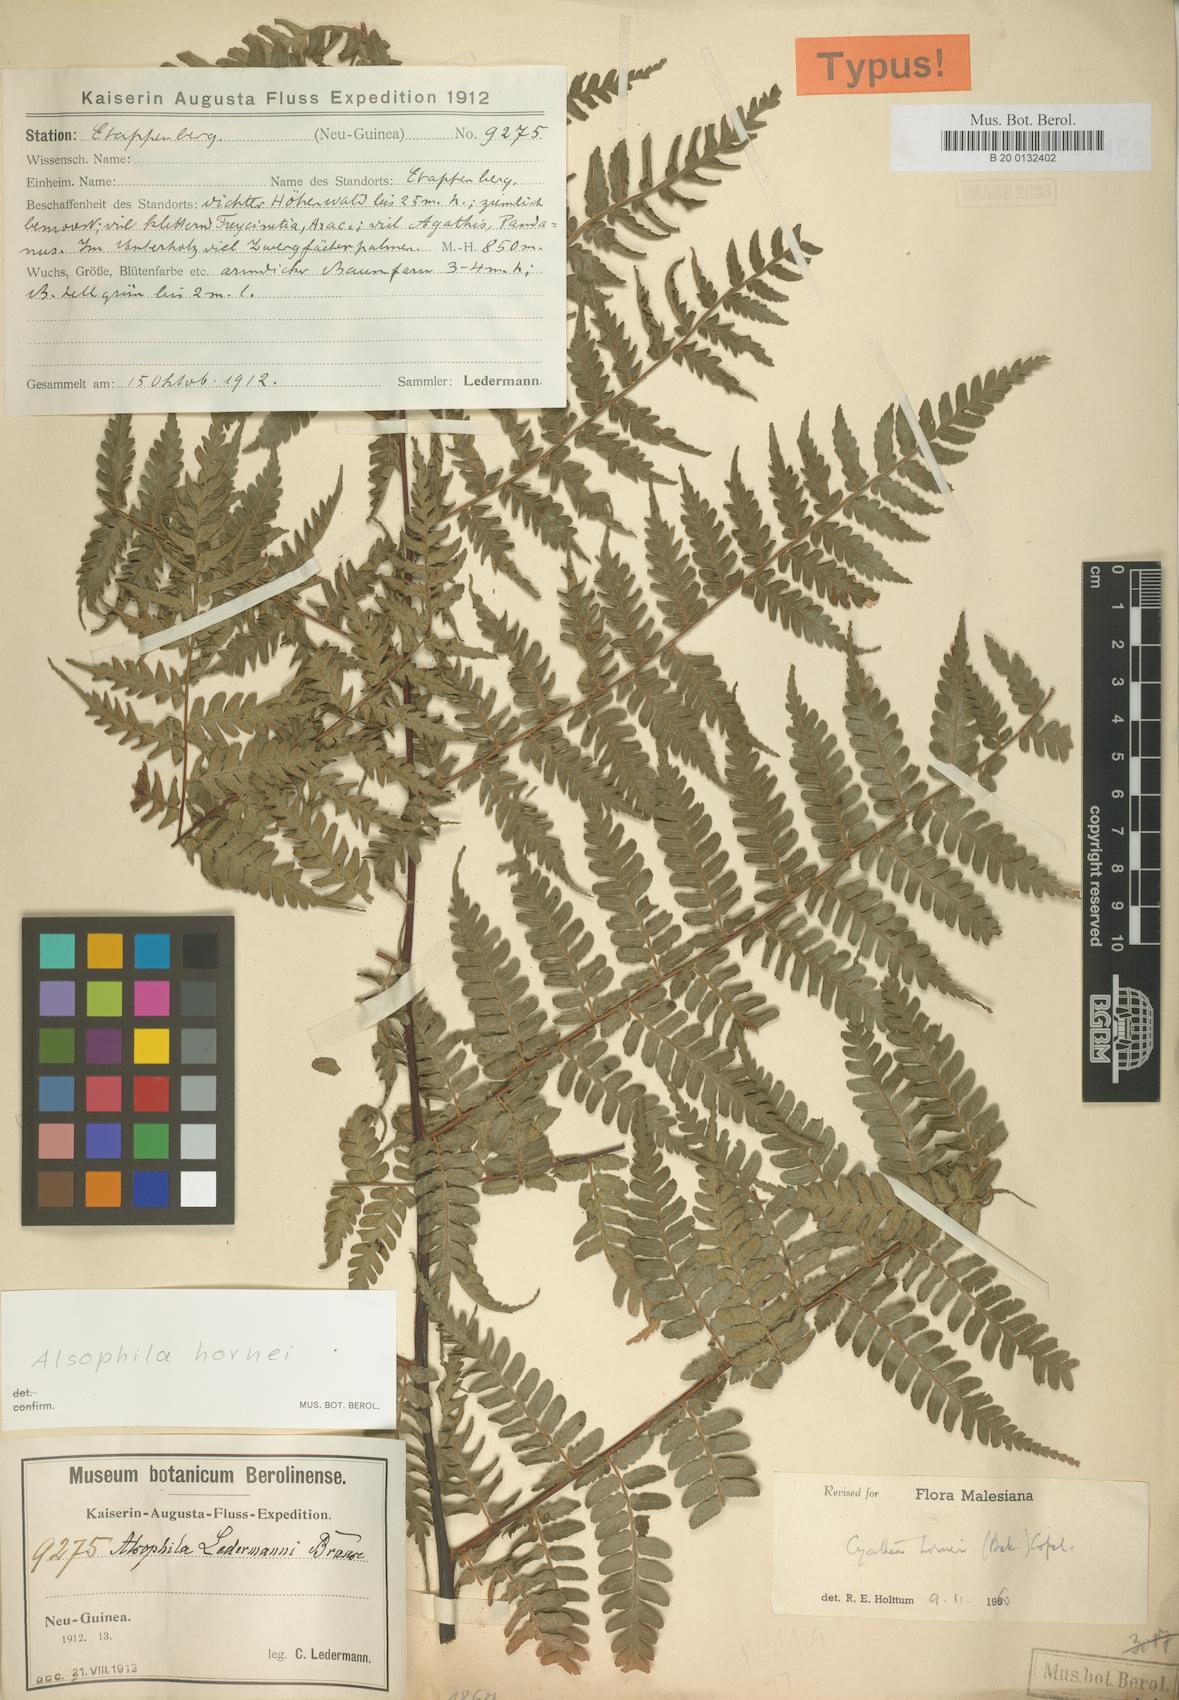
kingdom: Plantae
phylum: Tracheophyta
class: Polypodiopsida
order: Cyatheales
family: Cyatheaceae
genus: Gymnosphaera
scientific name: Gymnosphaera hornei
